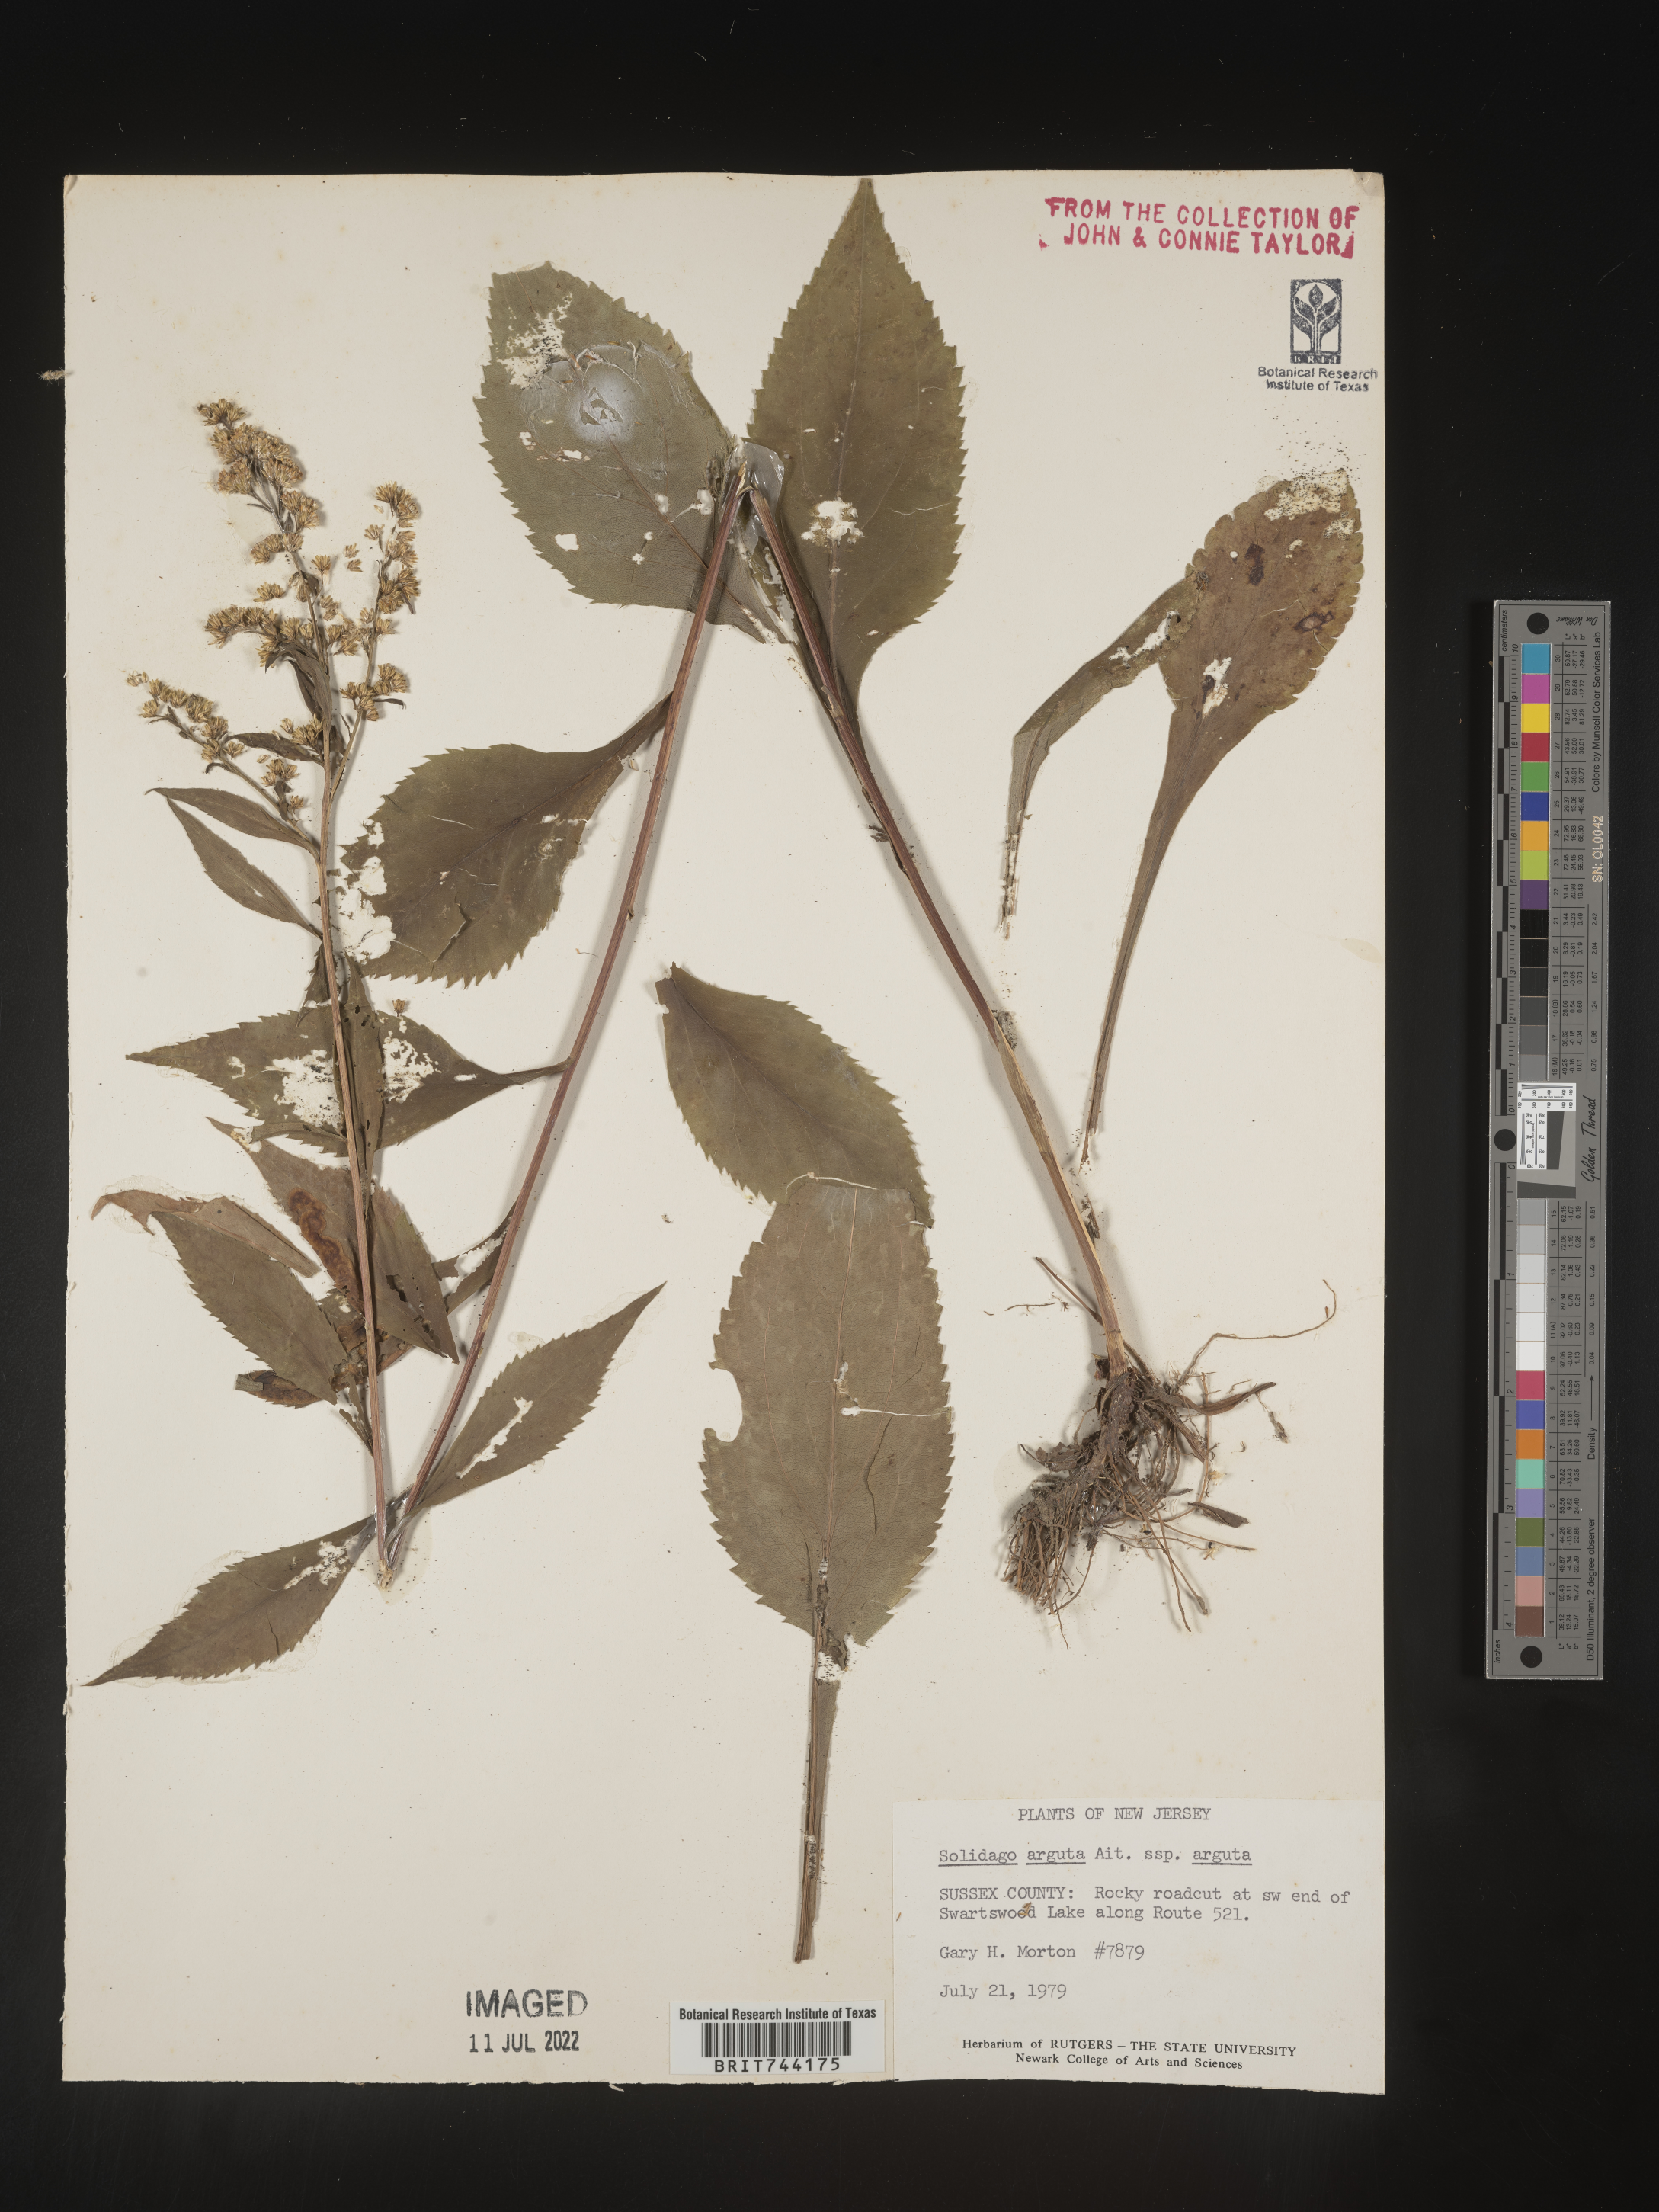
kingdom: Plantae
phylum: Tracheophyta
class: Magnoliopsida
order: Asterales
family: Asteraceae
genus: Solidago
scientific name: Solidago arguta
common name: Atlantic goldenrod
